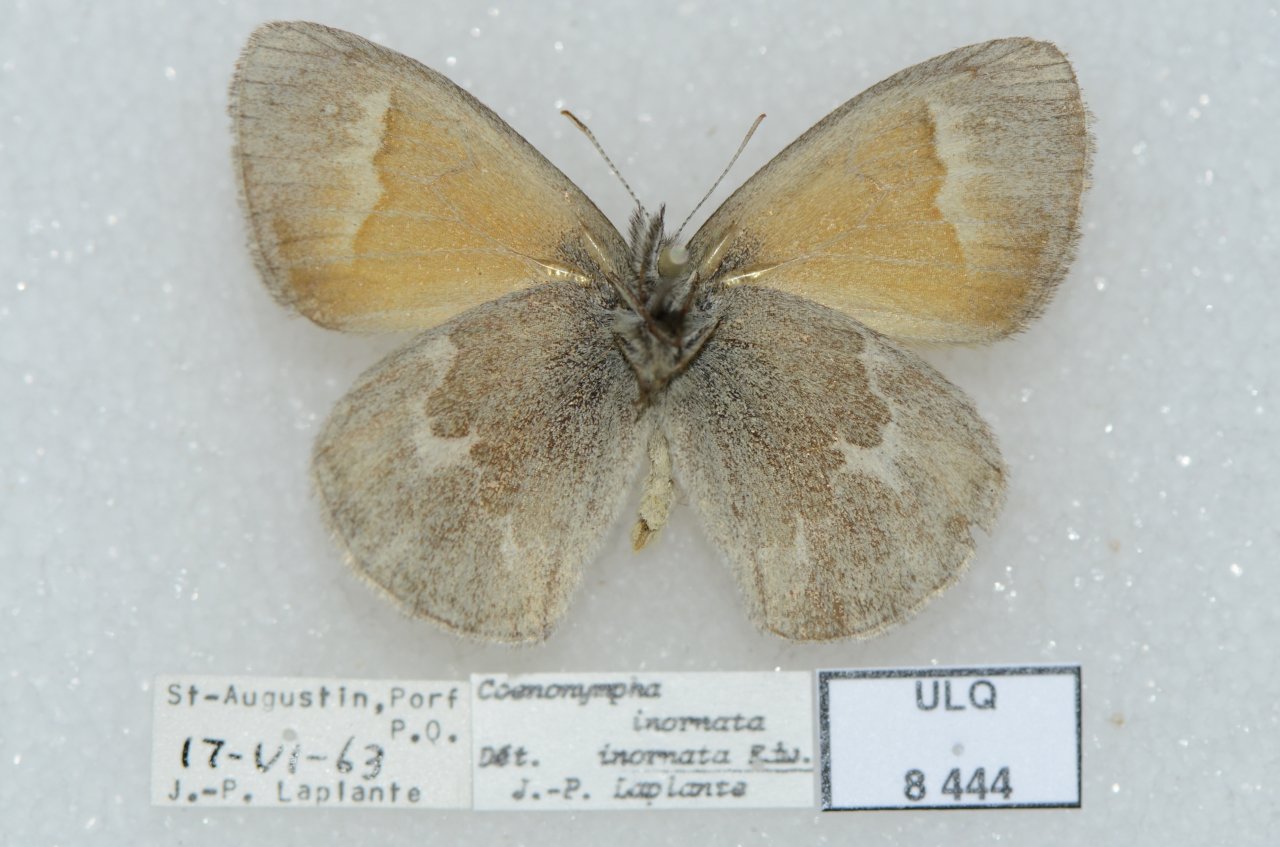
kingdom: Animalia
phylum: Arthropoda
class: Insecta
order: Lepidoptera
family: Nymphalidae
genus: Coenonympha
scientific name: Coenonympha tullia
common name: Large Heath
